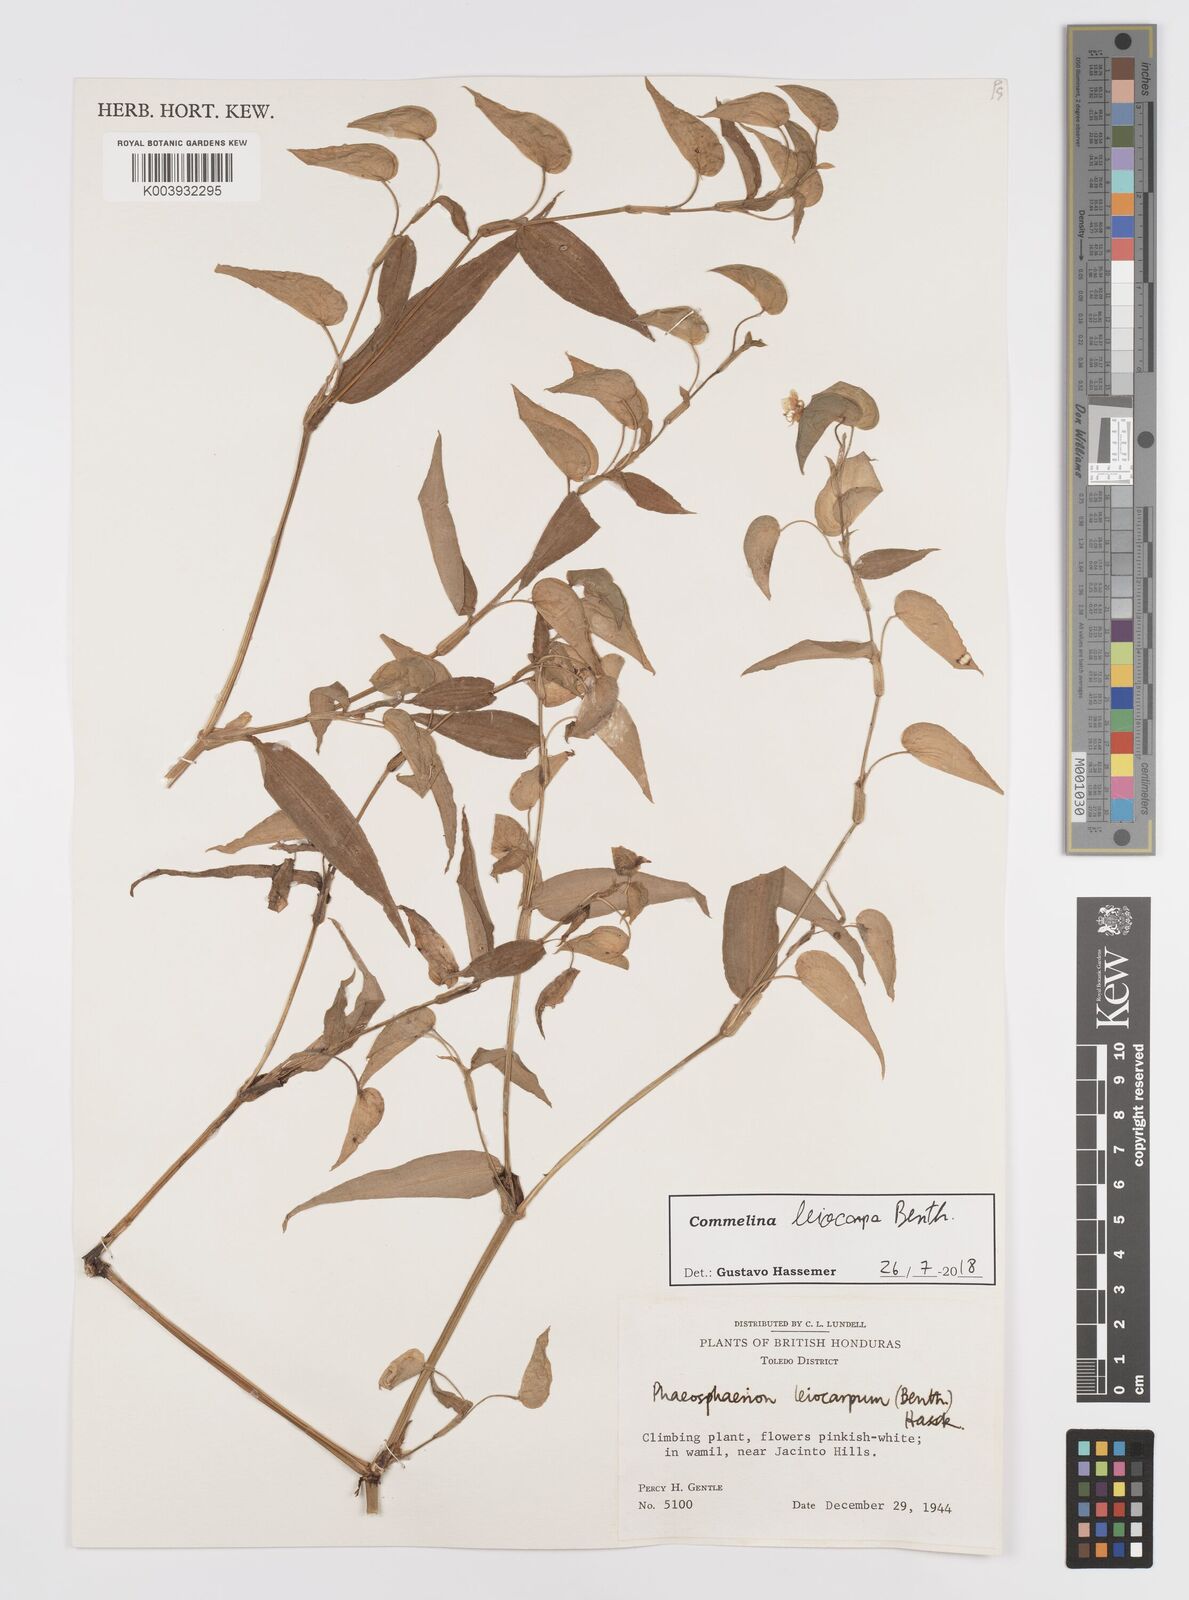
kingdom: Plantae
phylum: Tracheophyta
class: Liliopsida
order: Commelinales
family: Commelinaceae
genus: Commelina
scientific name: Commelina leiocarpa
